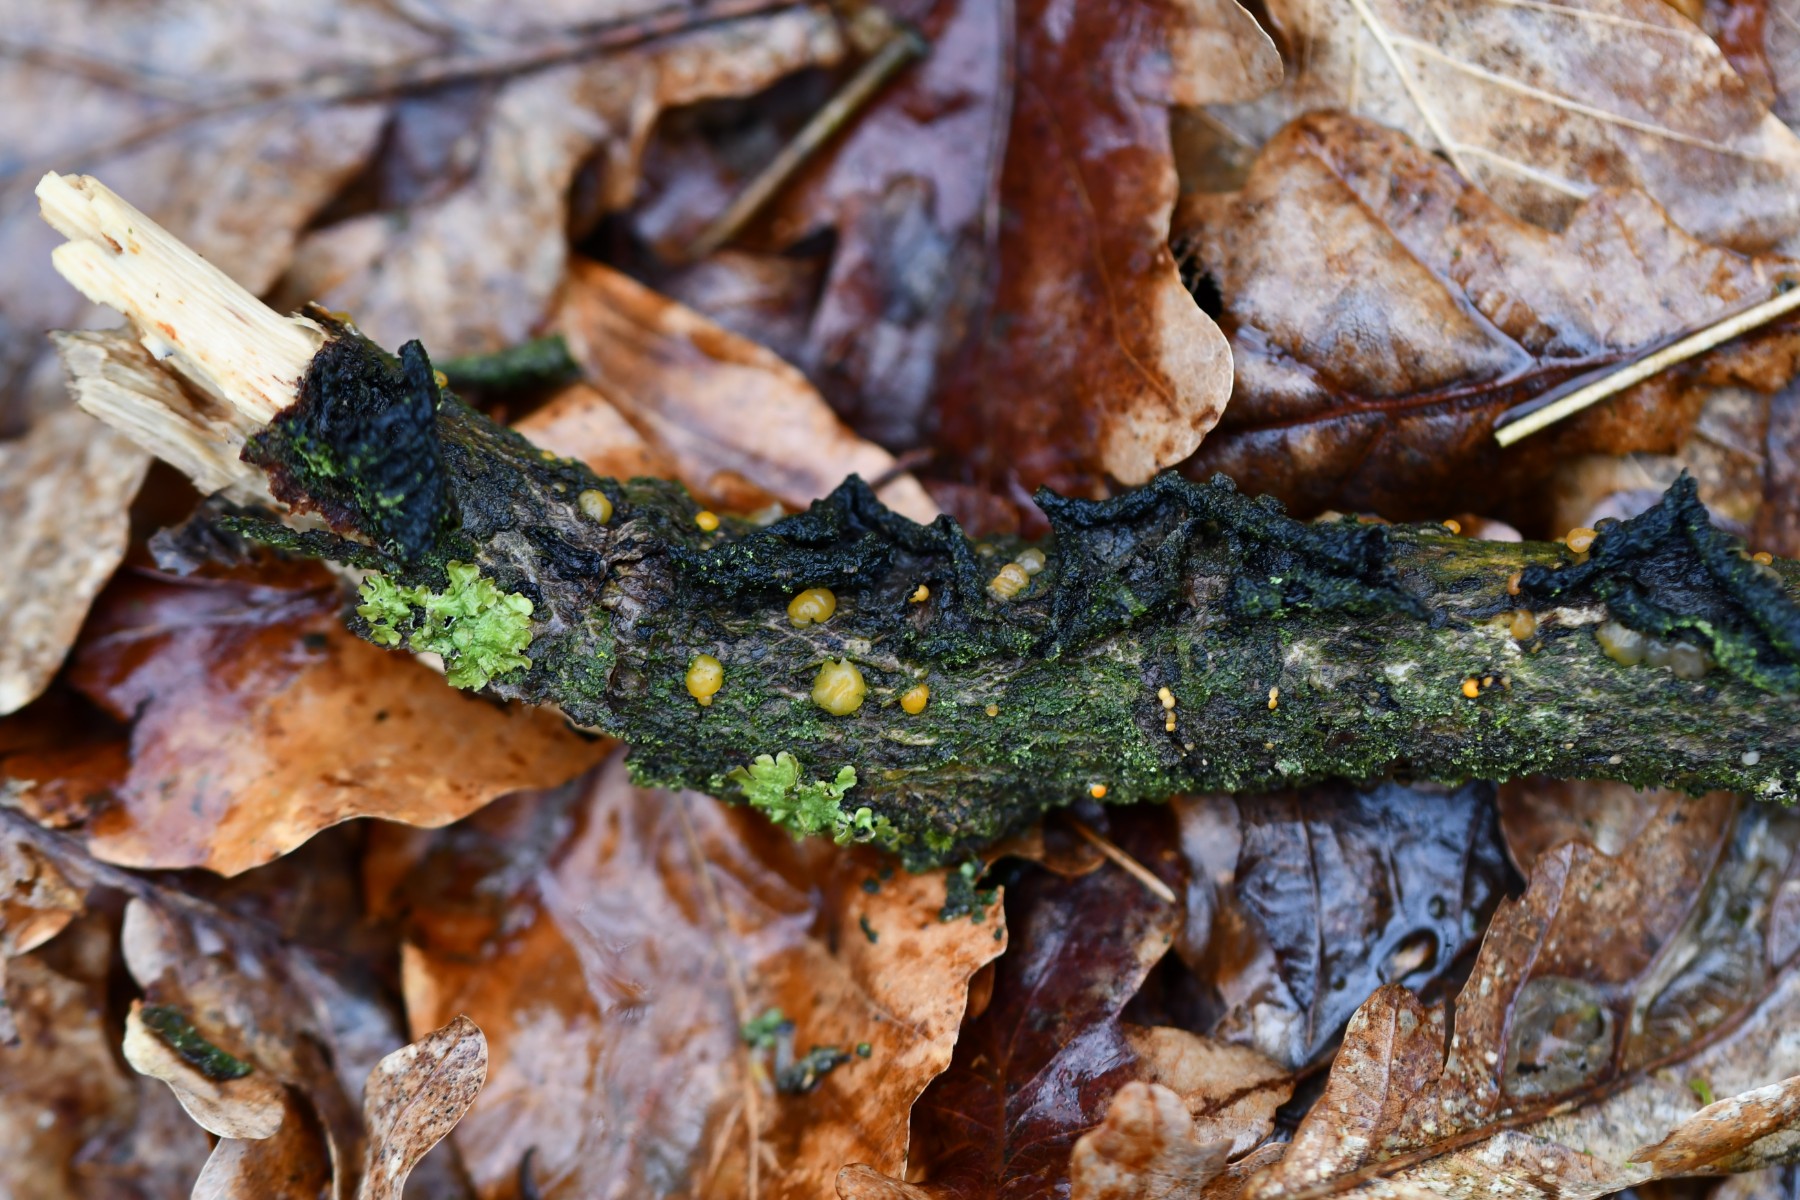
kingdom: Fungi
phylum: Basidiomycota
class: Dacrymycetes
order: Dacrymycetales
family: Dacrymycetaceae
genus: Dacrymyces
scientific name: Dacrymyces
